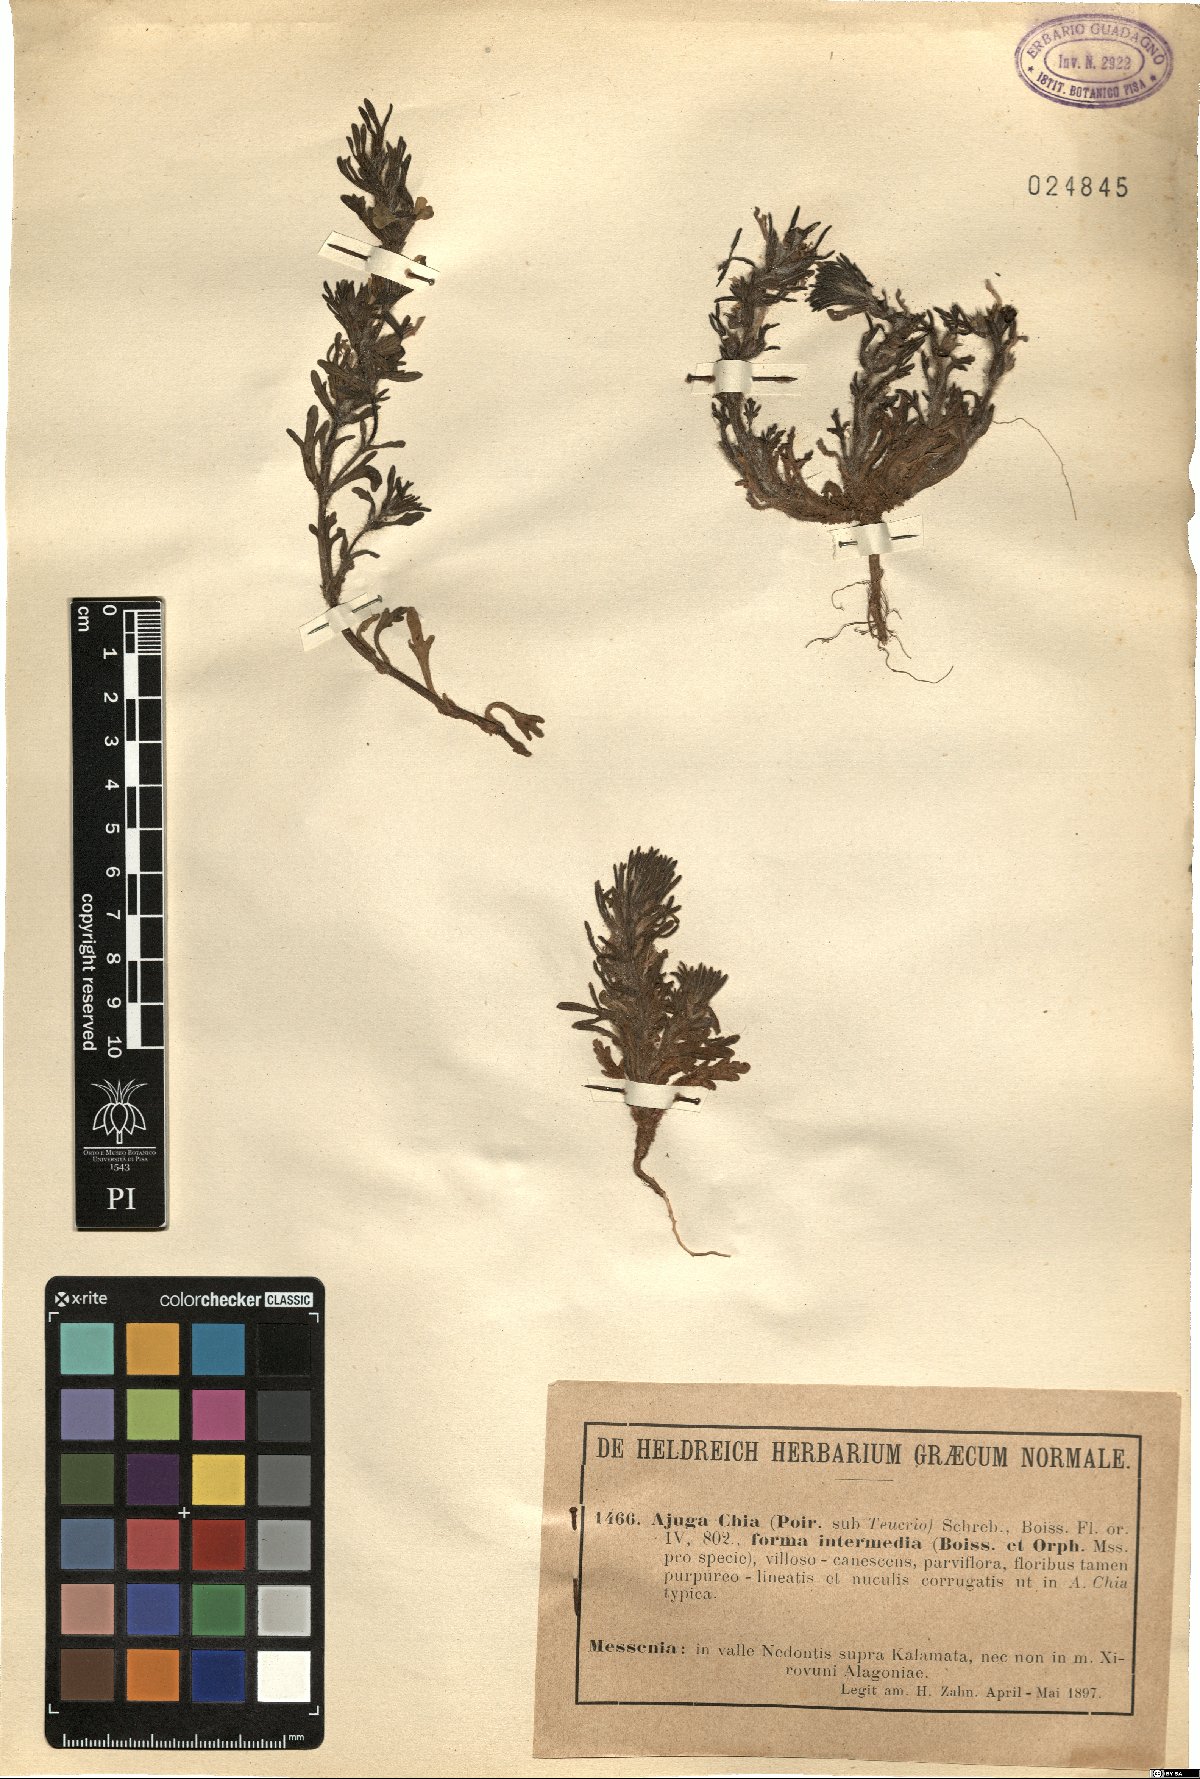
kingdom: Plantae
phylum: Tracheophyta
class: Magnoliopsida
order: Lamiales
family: Lamiaceae
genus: Ajuga
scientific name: Ajuga chamaepitys
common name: Ground-pine
